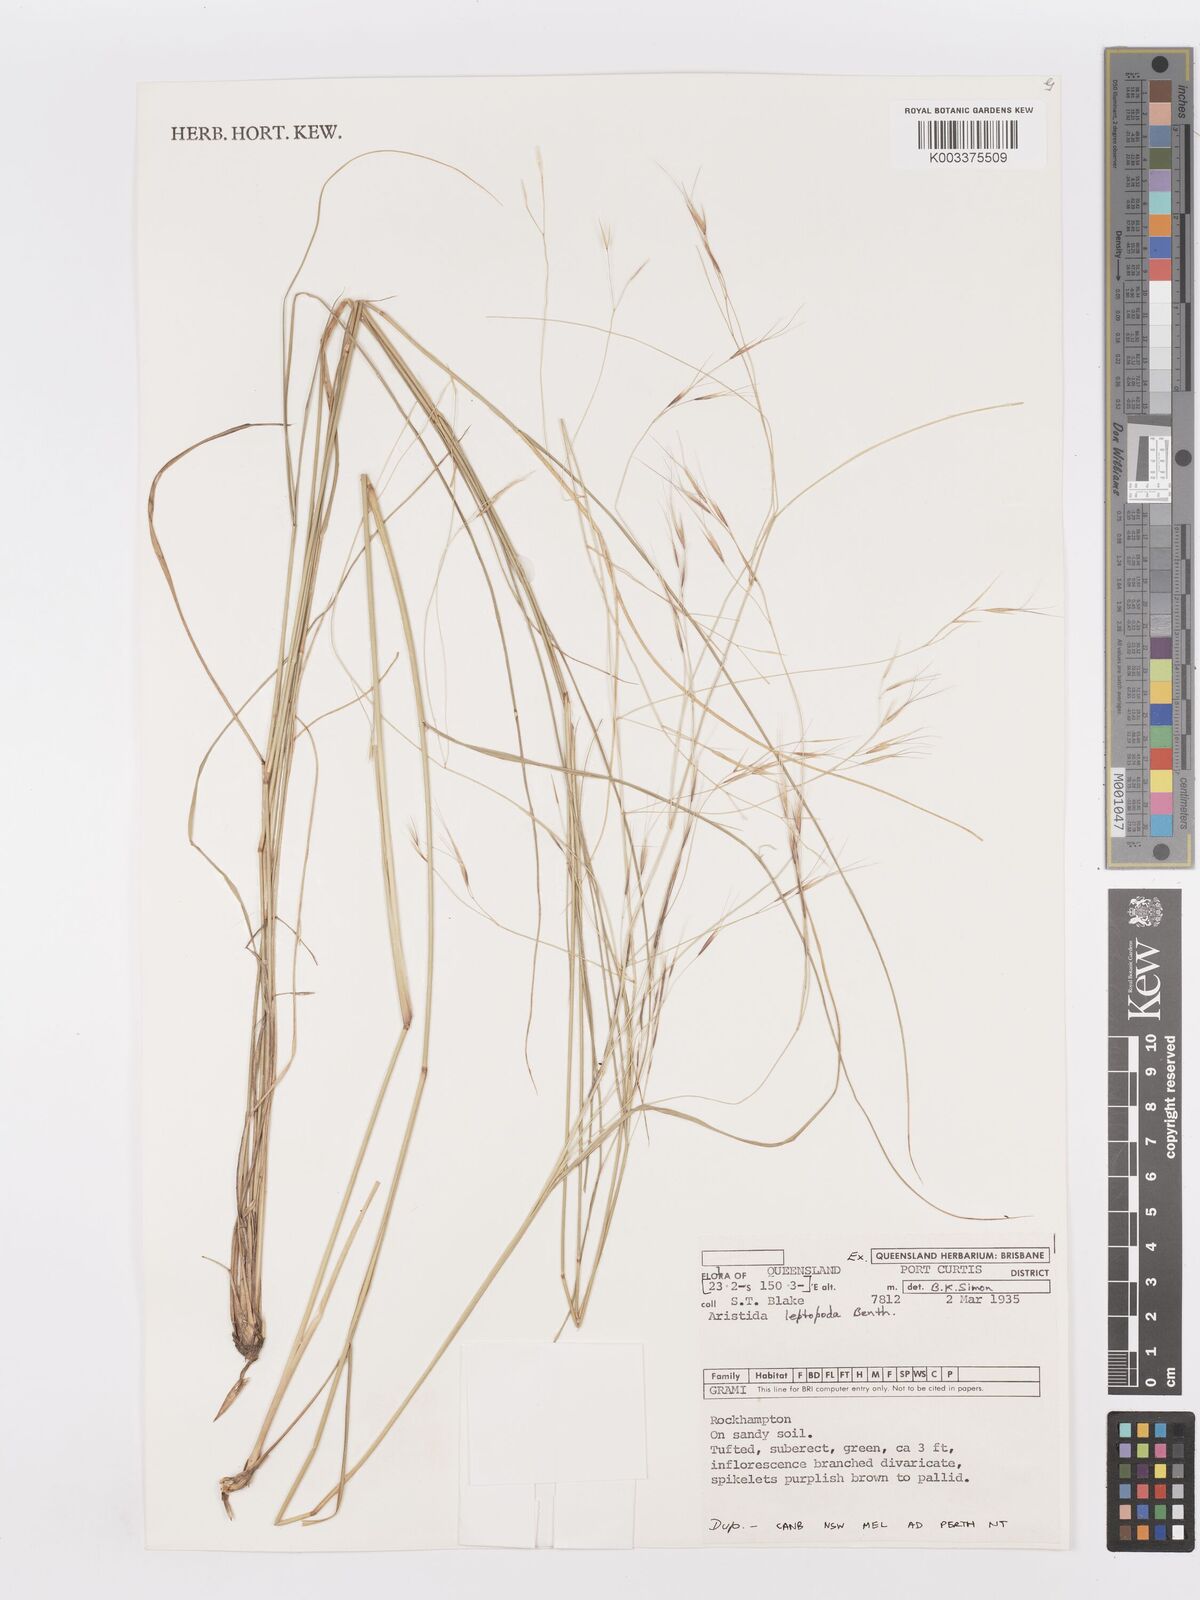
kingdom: Plantae
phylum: Tracheophyta
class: Liliopsida
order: Poales
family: Poaceae
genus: Aristida
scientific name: Aristida leptopoda
